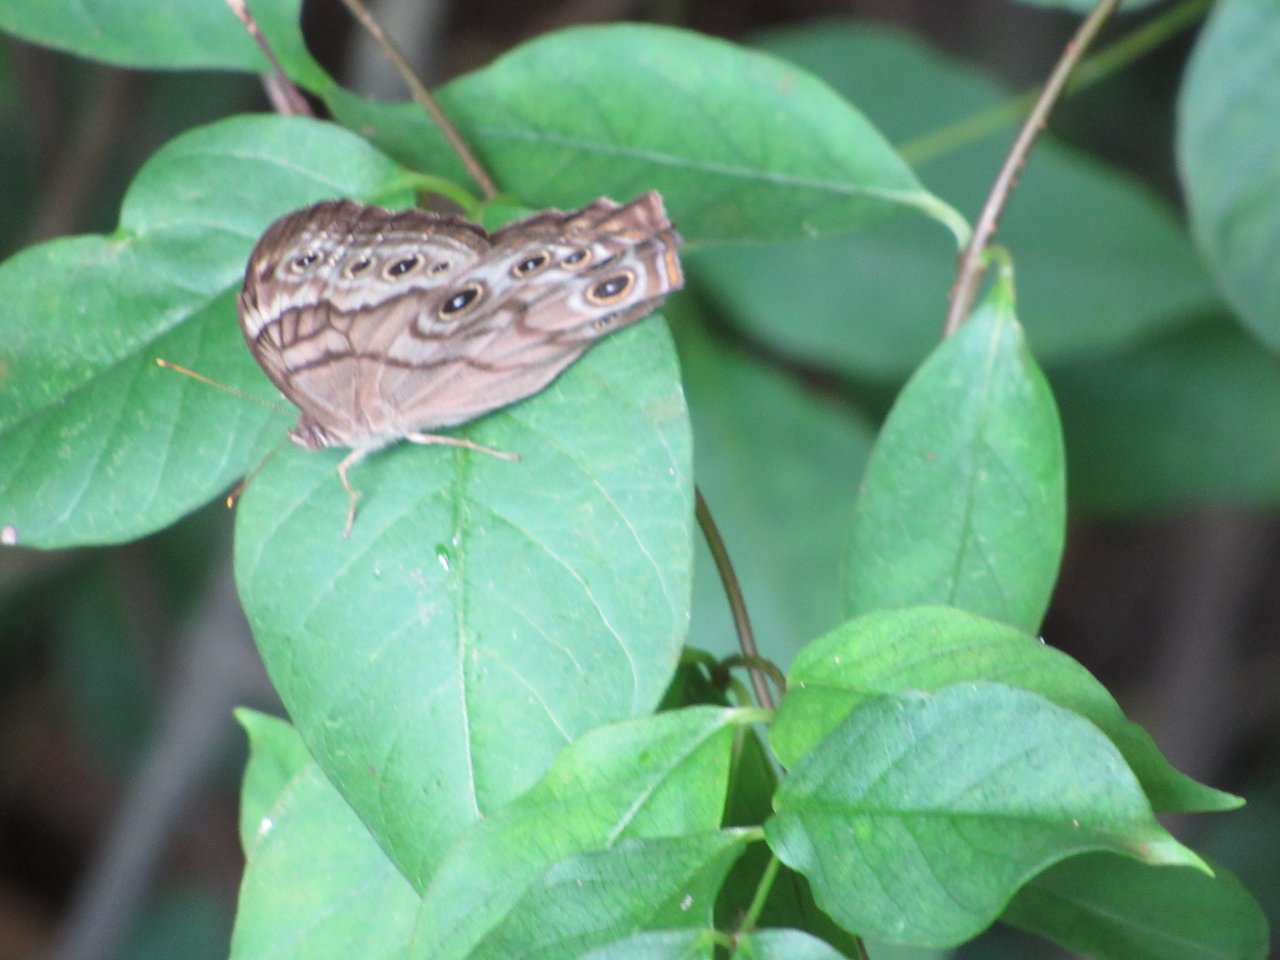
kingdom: Animalia
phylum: Arthropoda
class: Insecta
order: Lepidoptera
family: Nymphalidae
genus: Lethe
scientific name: Lethe creola
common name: Creole Pearly-Eye
